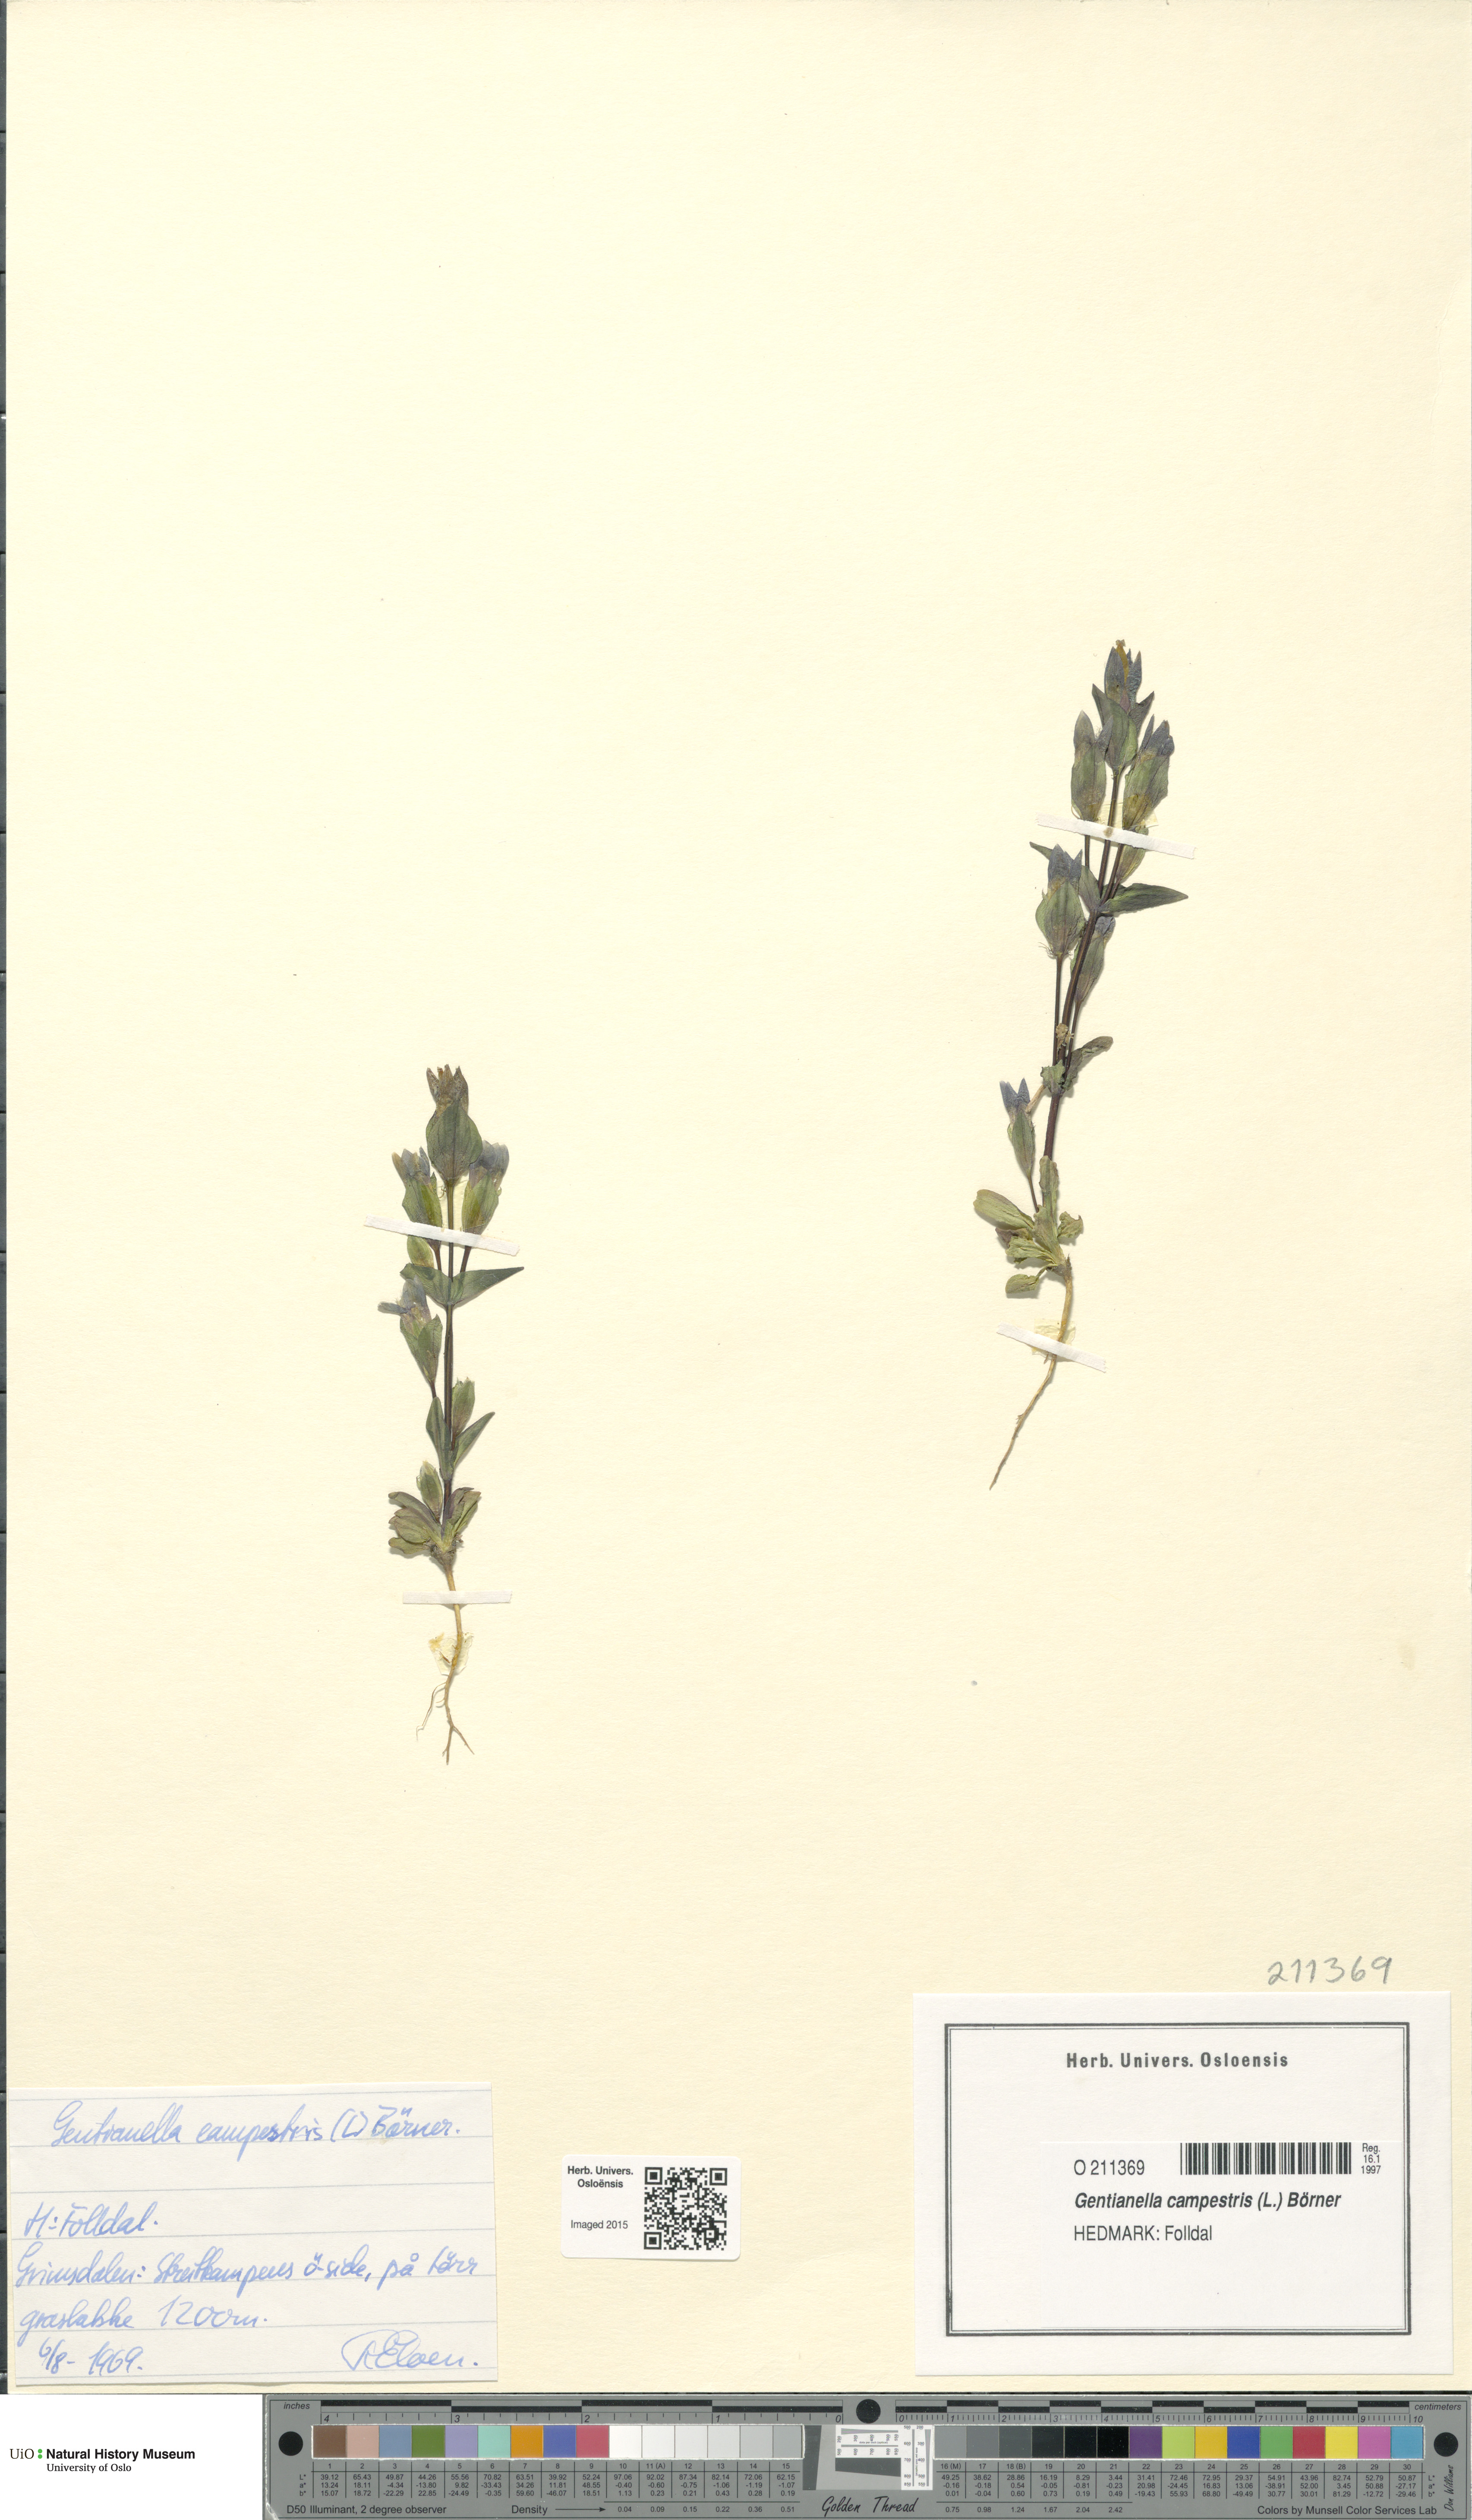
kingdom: Plantae
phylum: Tracheophyta
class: Magnoliopsida
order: Gentianales
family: Gentianaceae
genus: Gentianella
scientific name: Gentianella campestris
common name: Field gentian
